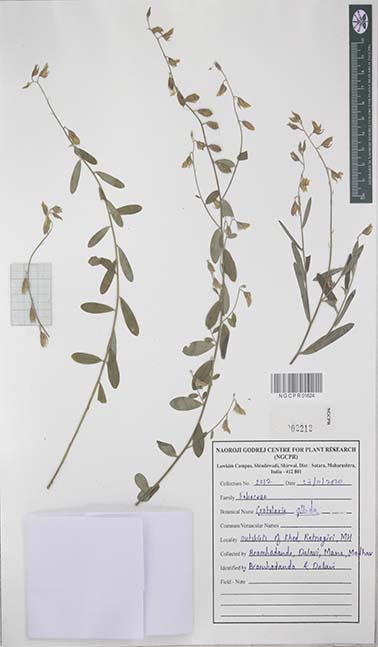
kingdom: Plantae
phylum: Tracheophyta
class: Magnoliopsida
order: Fabales
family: Fabaceae
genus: Crotalaria
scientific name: Crotalaria albida
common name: Taiwan crotalaria
